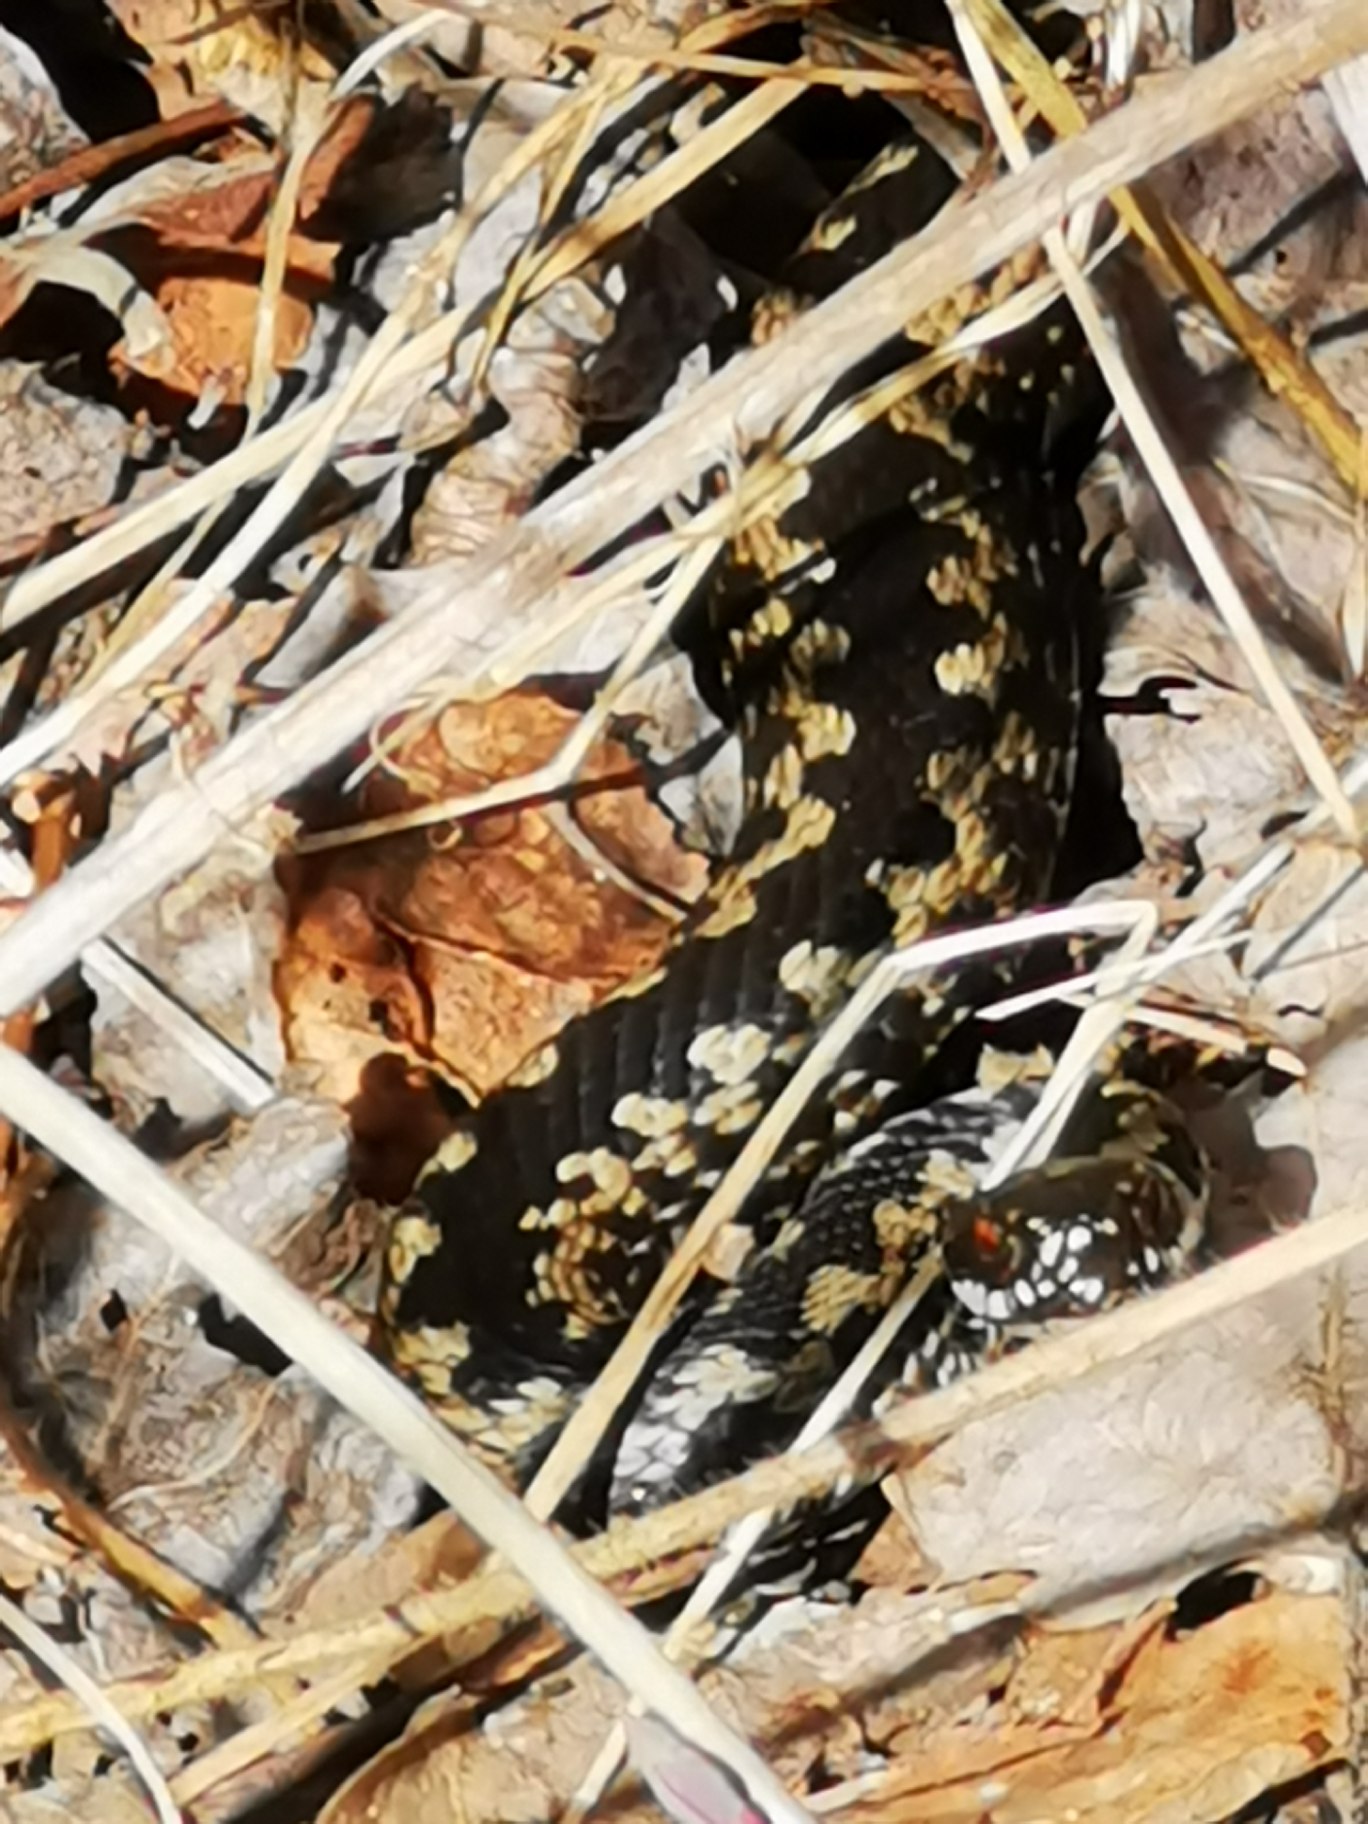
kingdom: Animalia
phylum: Chordata
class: Squamata
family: Viperidae
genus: Vipera
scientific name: Vipera berus
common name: Hugorm
